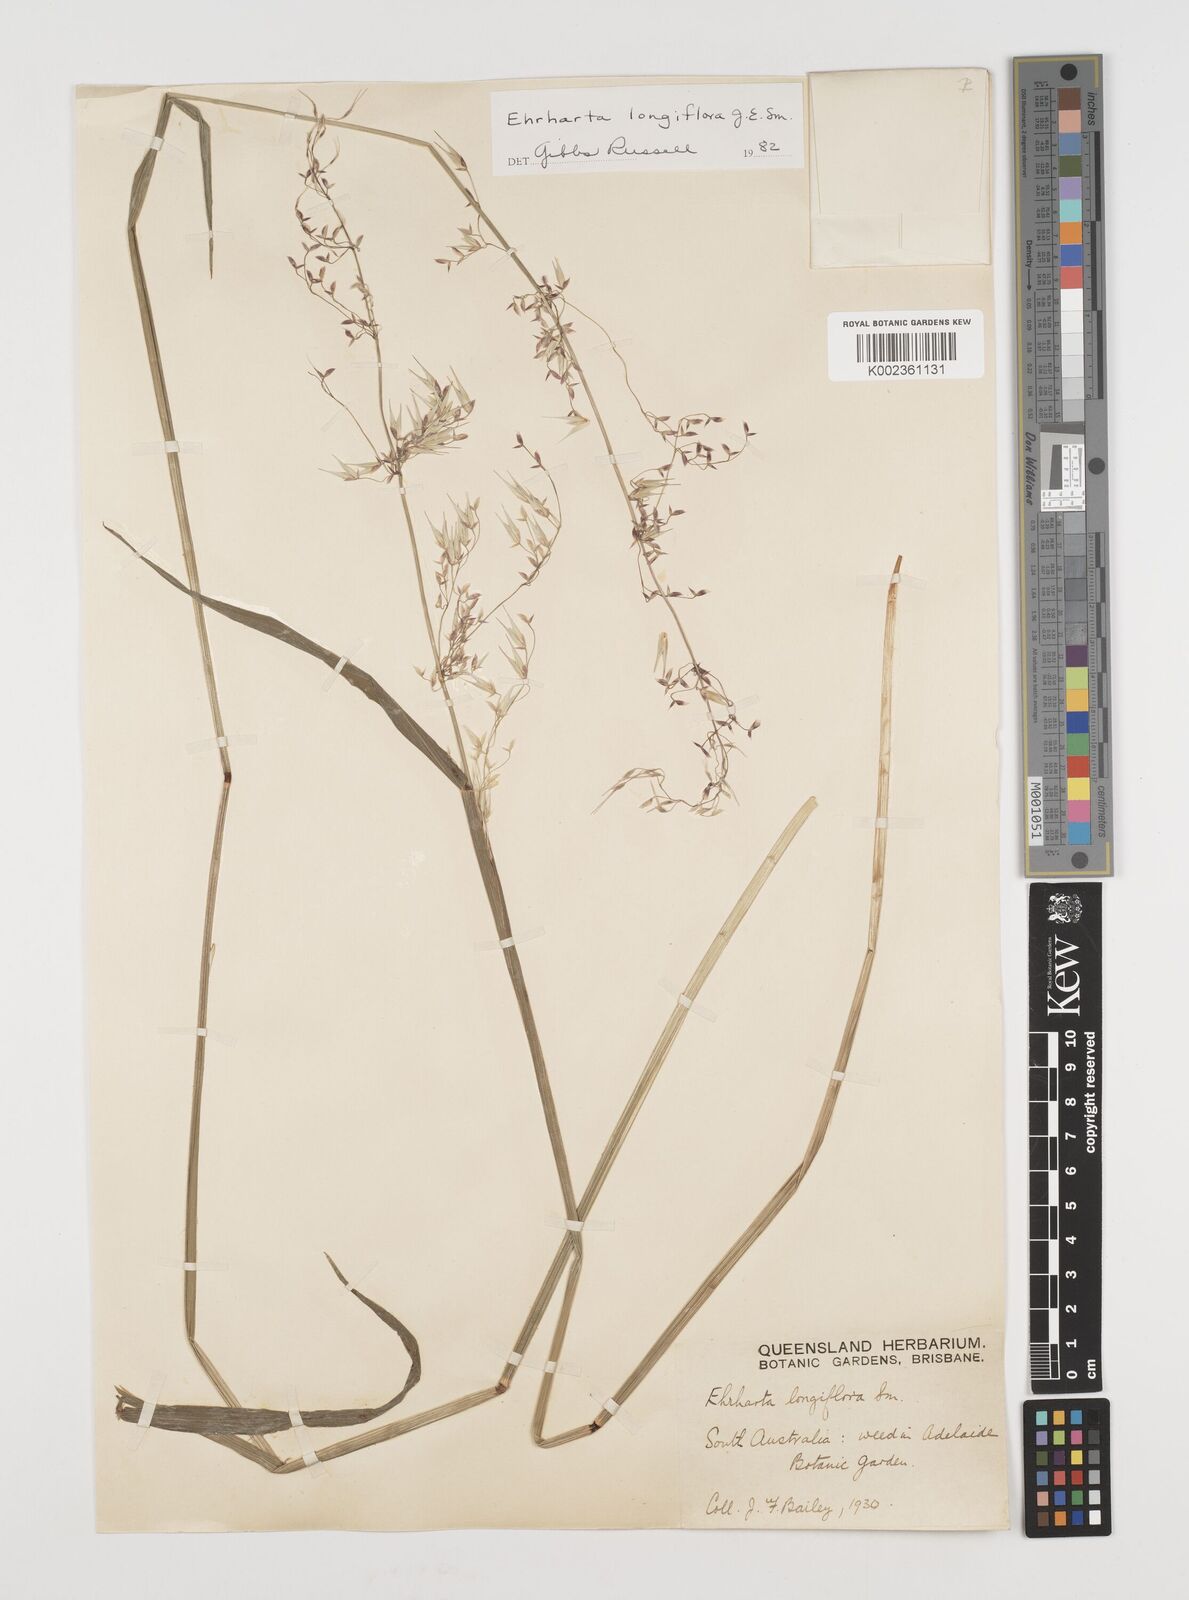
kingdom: Plantae
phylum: Tracheophyta
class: Liliopsida
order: Poales
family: Poaceae
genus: Ehrharta
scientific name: Ehrharta longiflora
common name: Longflowered veldtgrass
